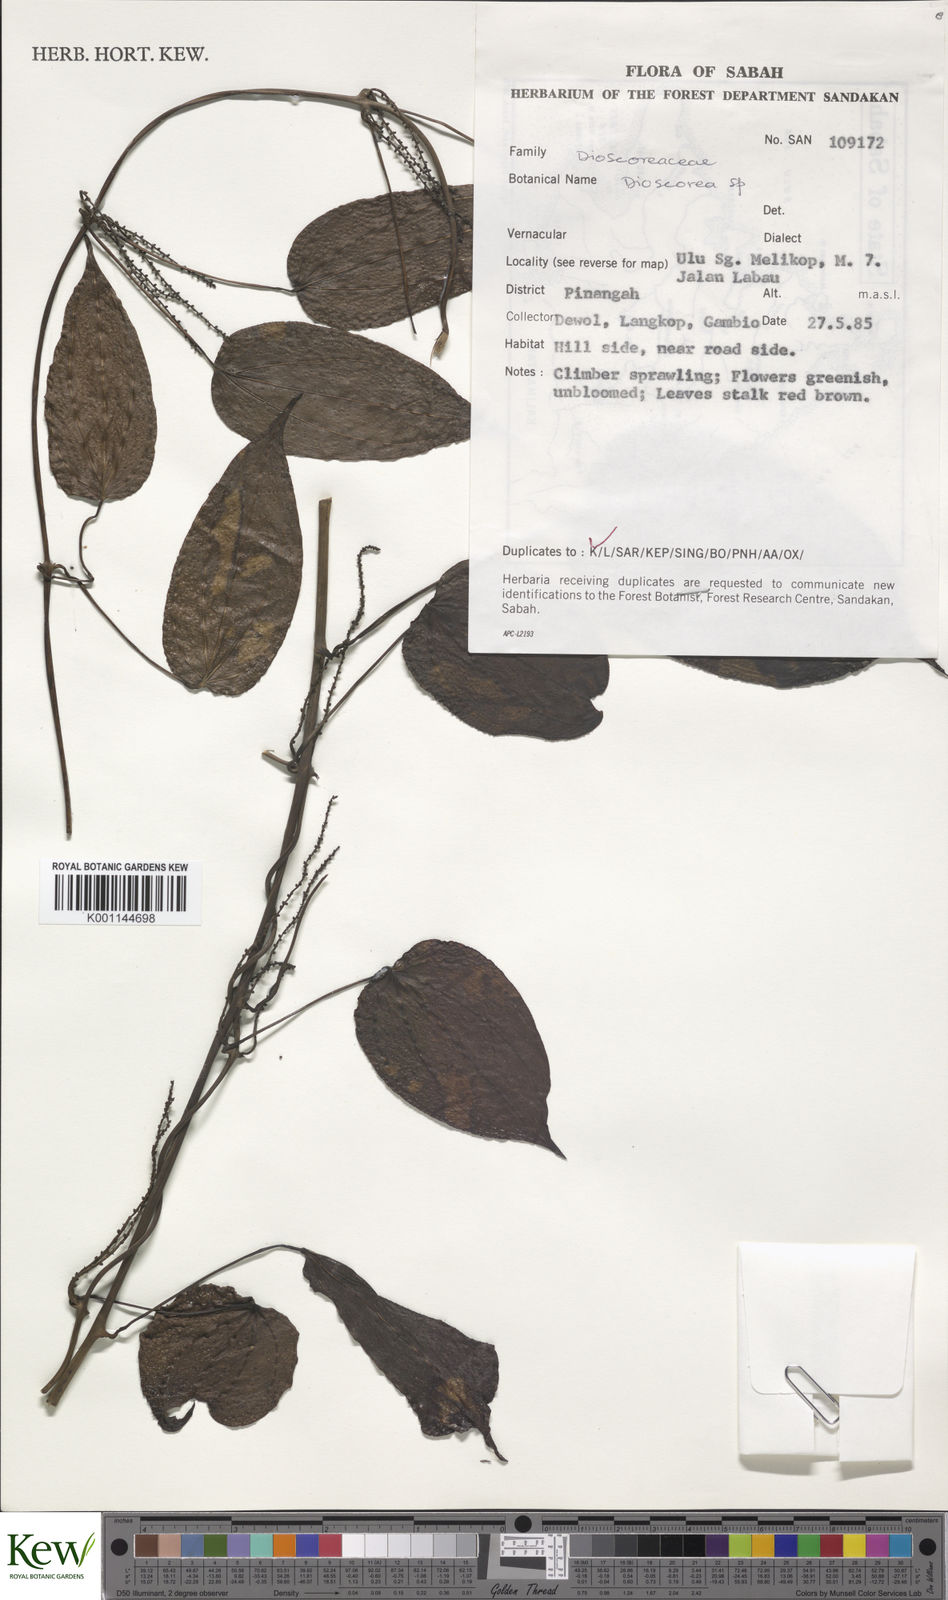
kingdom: Plantae
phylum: Tracheophyta
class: Liliopsida
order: Dioscoreales
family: Dioscoreaceae
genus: Dioscorea
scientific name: Dioscorea
